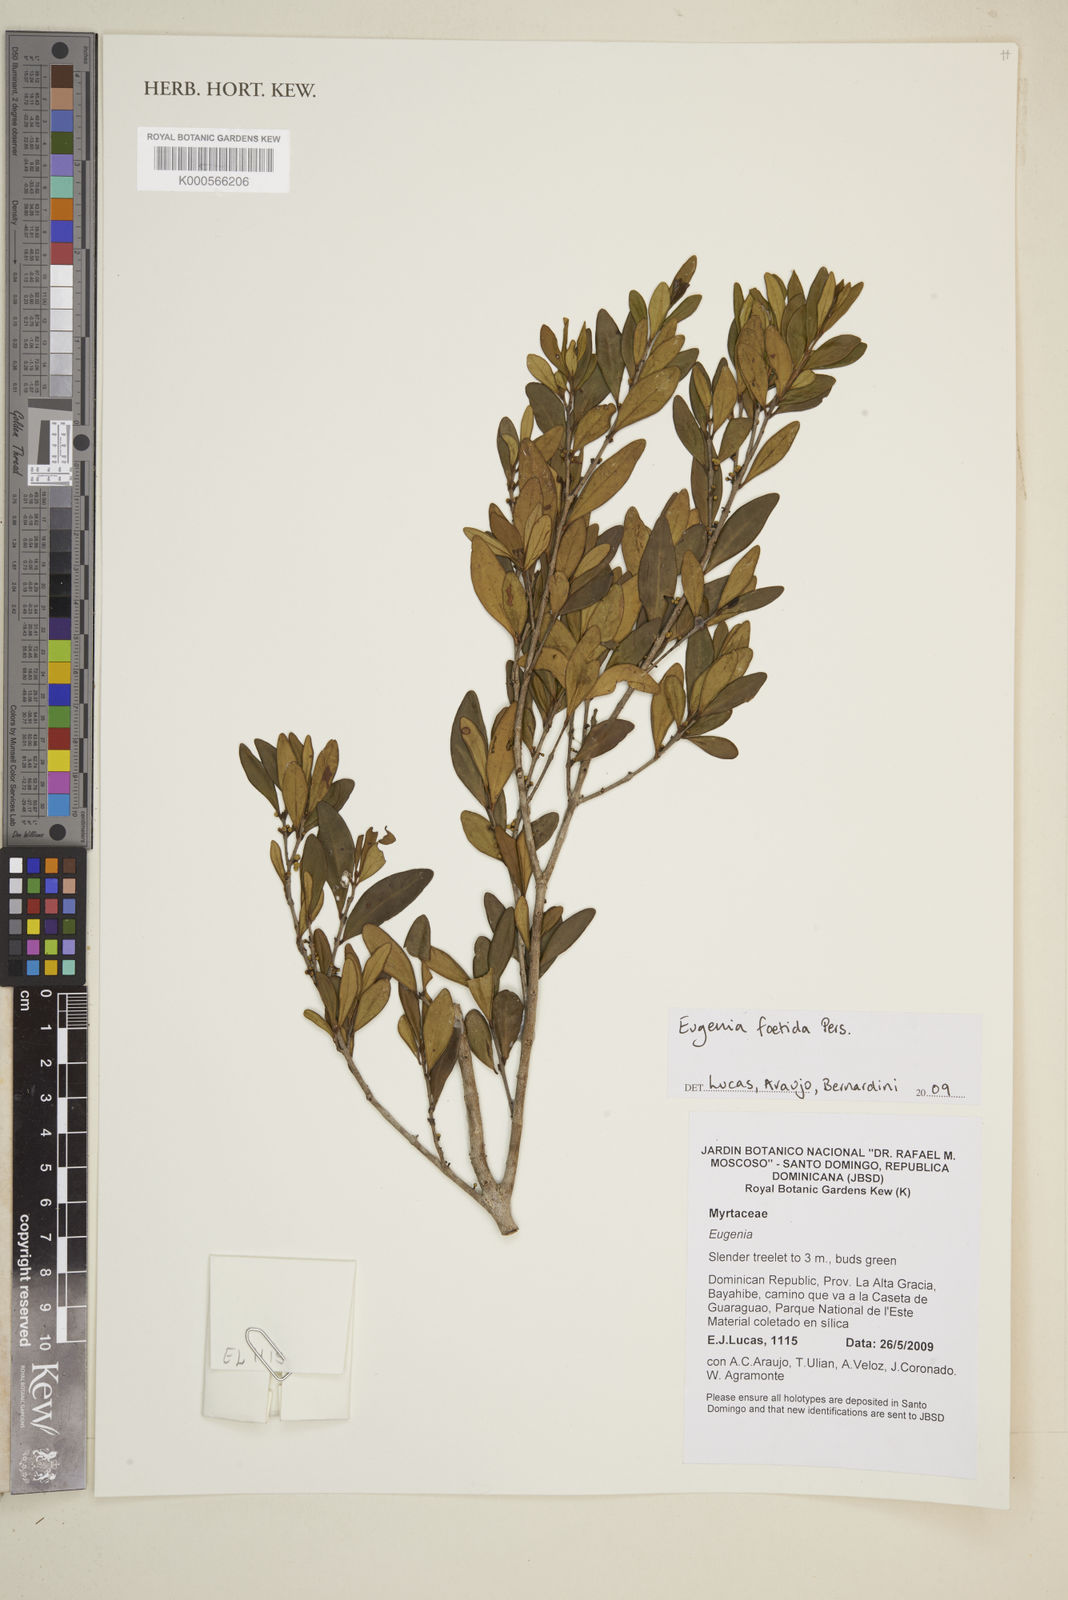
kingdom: Plantae
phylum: Tracheophyta
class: Magnoliopsida
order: Myrtales
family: Myrtaceae
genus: Eugenia
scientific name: Eugenia foetida
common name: White wattling
